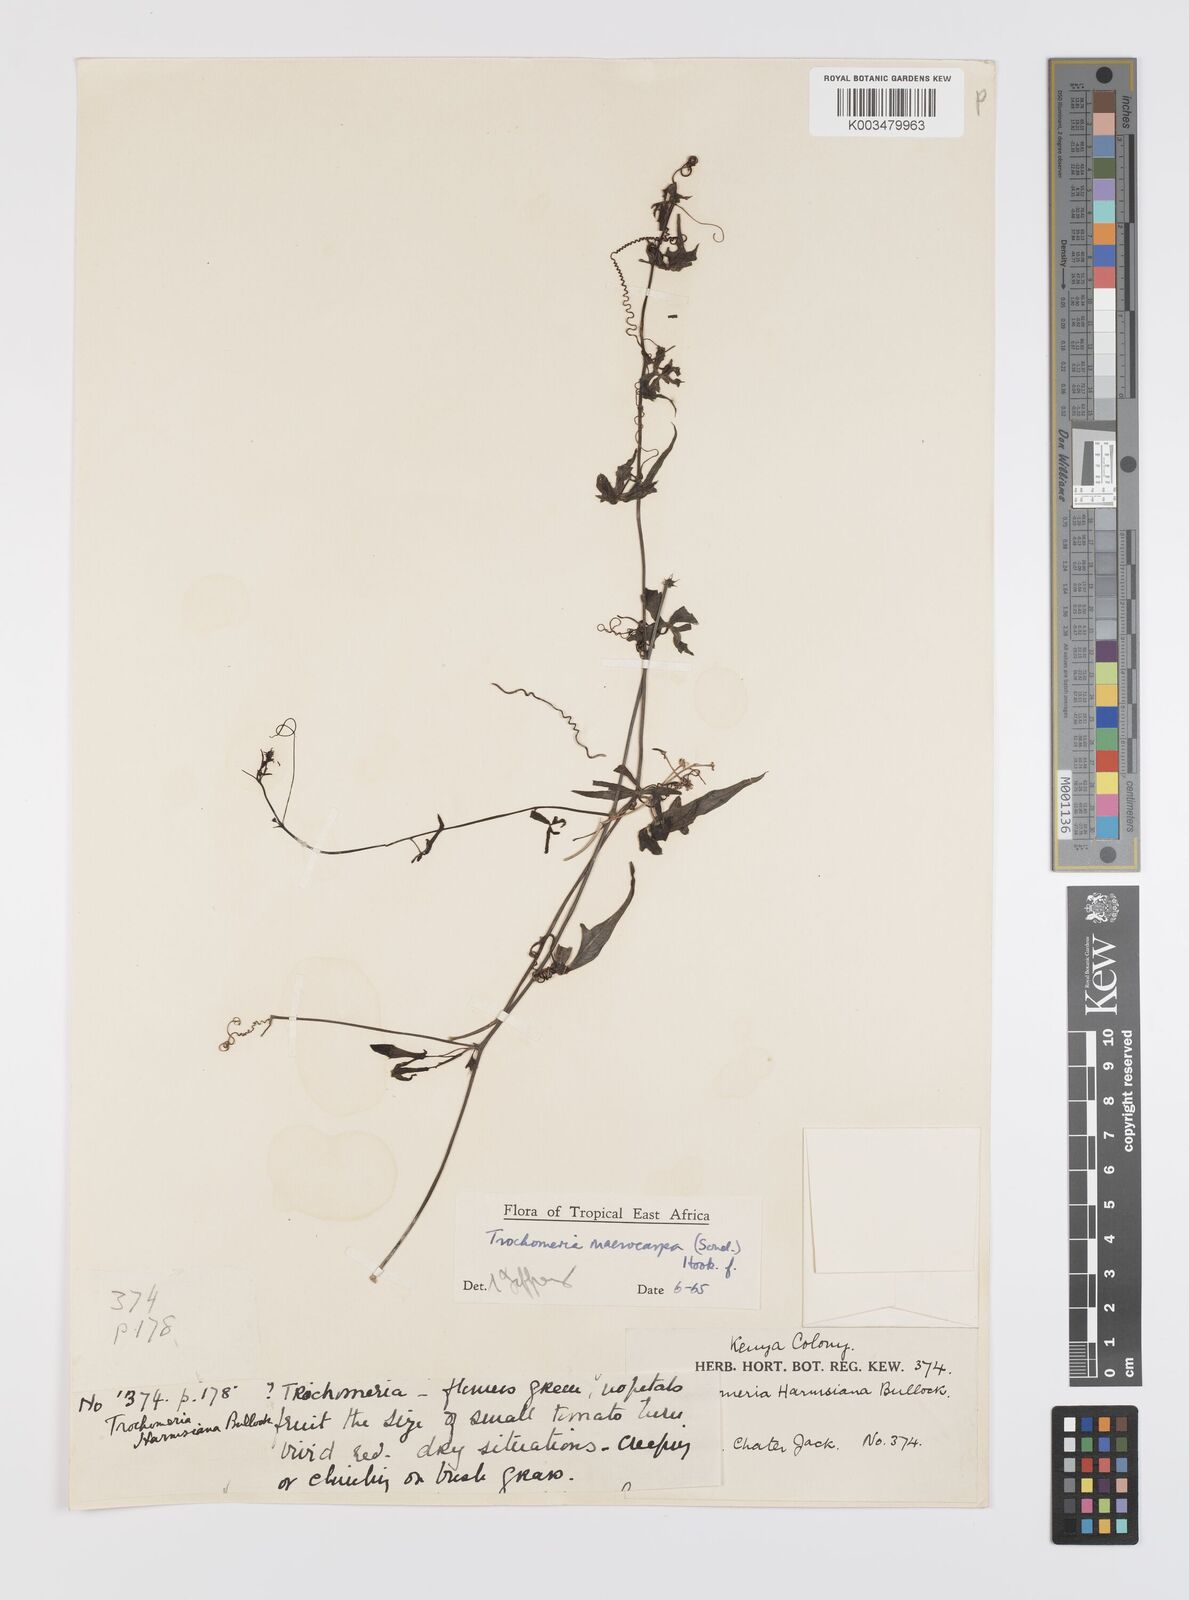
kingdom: Plantae
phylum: Tracheophyta
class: Magnoliopsida
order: Cucurbitales
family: Cucurbitaceae
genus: Trochomeria
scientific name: Trochomeria macrocarpa
